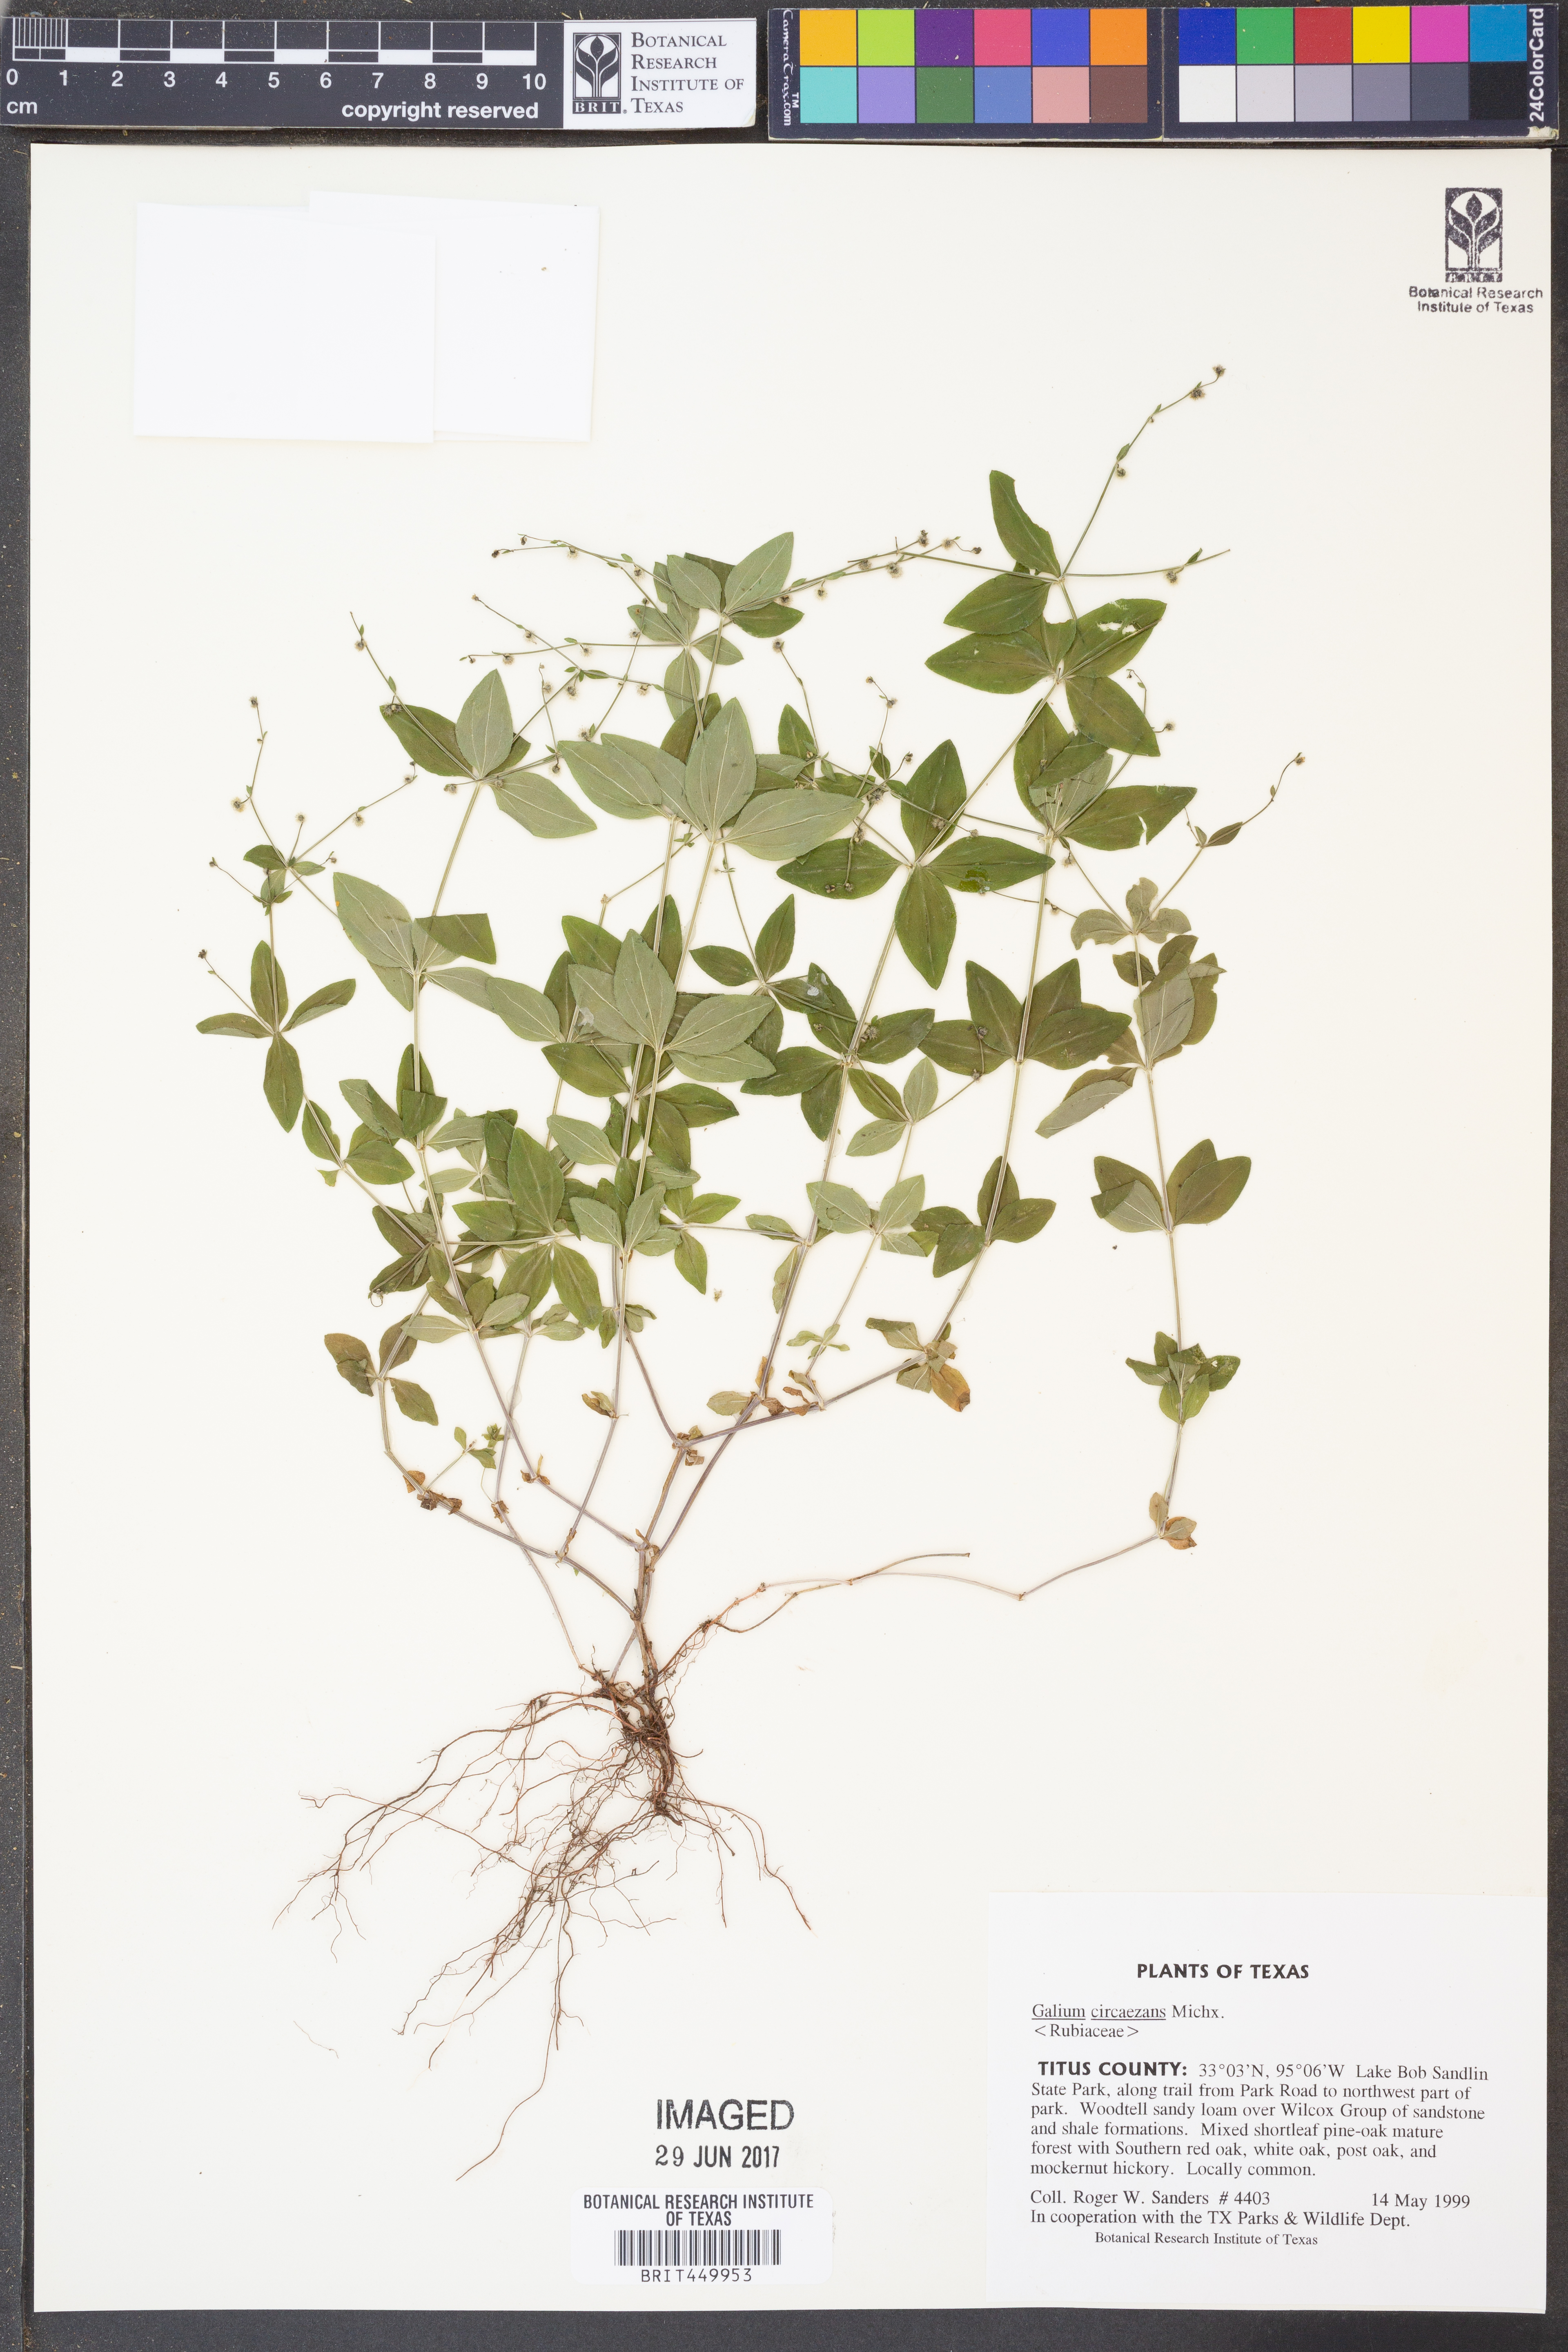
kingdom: Plantae
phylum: Tracheophyta
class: Magnoliopsida
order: Gentianales
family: Rubiaceae
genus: Galium
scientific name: Galium circaezans
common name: Forest bedstraw
